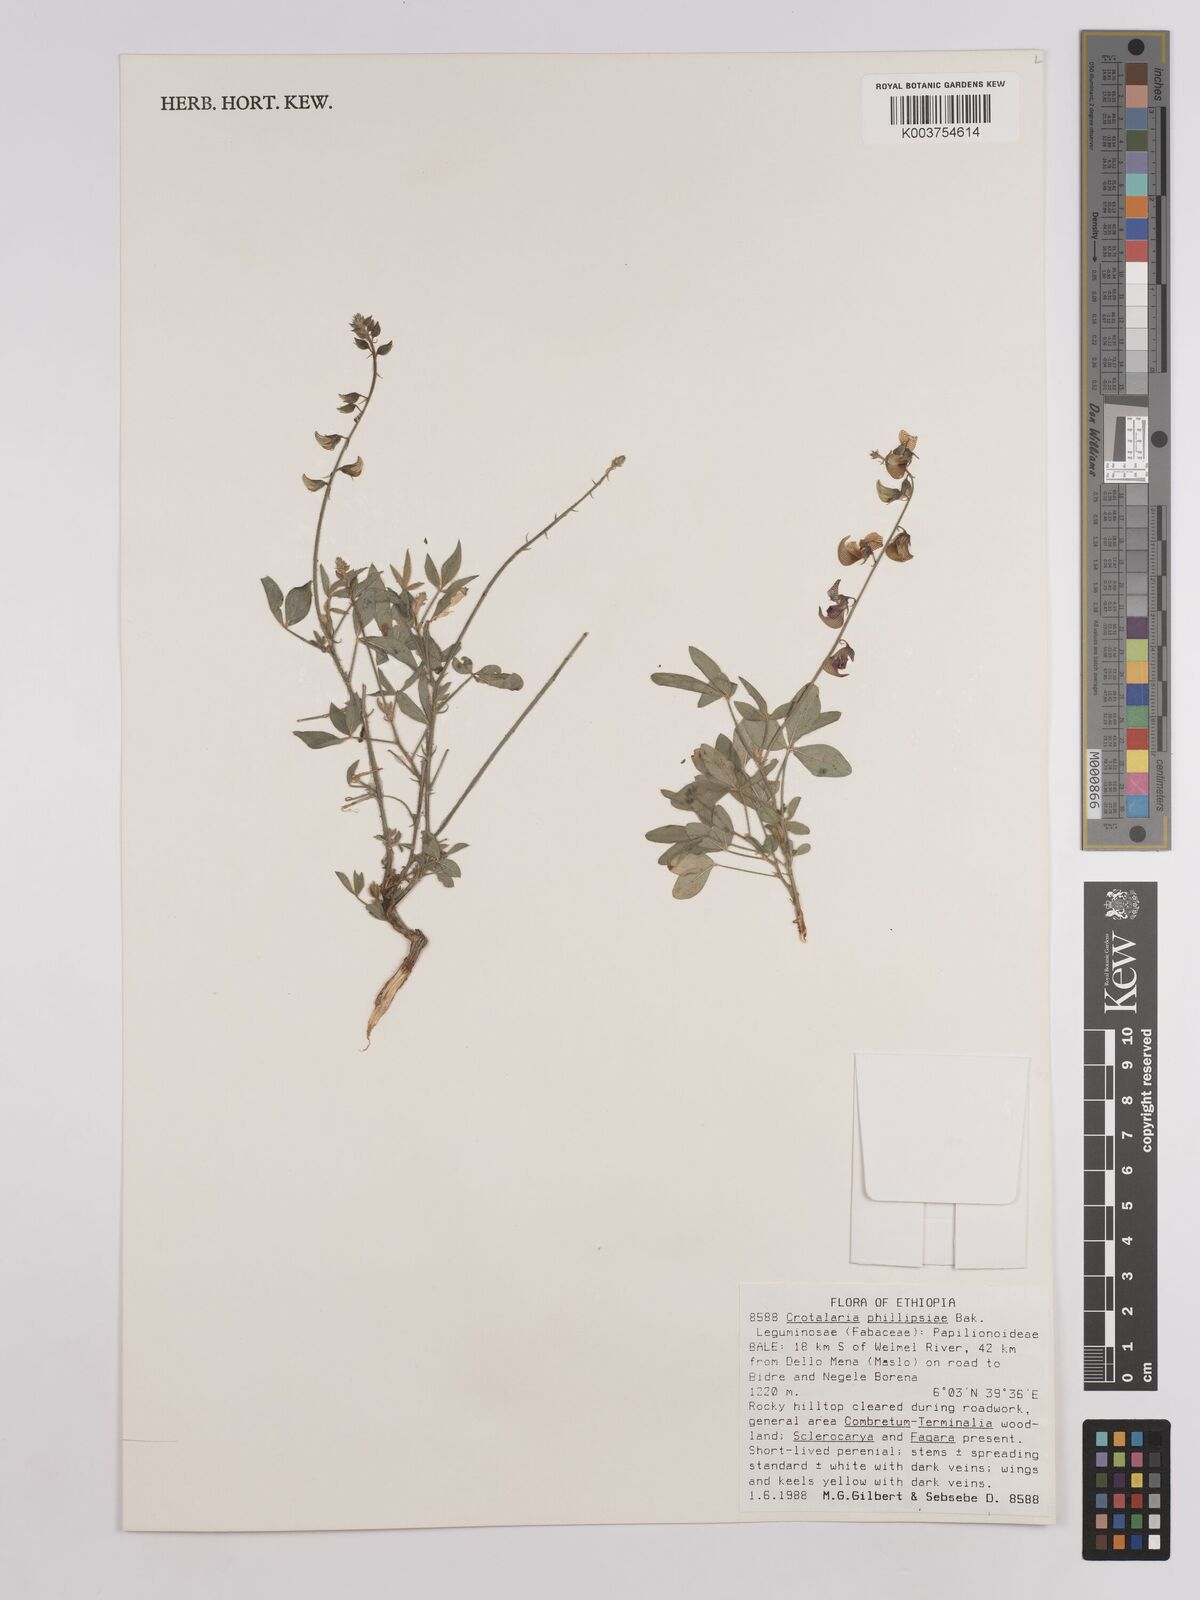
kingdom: Plantae
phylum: Tracheophyta
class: Magnoliopsida
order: Fabales
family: Fabaceae
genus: Crotalaria
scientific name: Crotalaria phillipsiae
